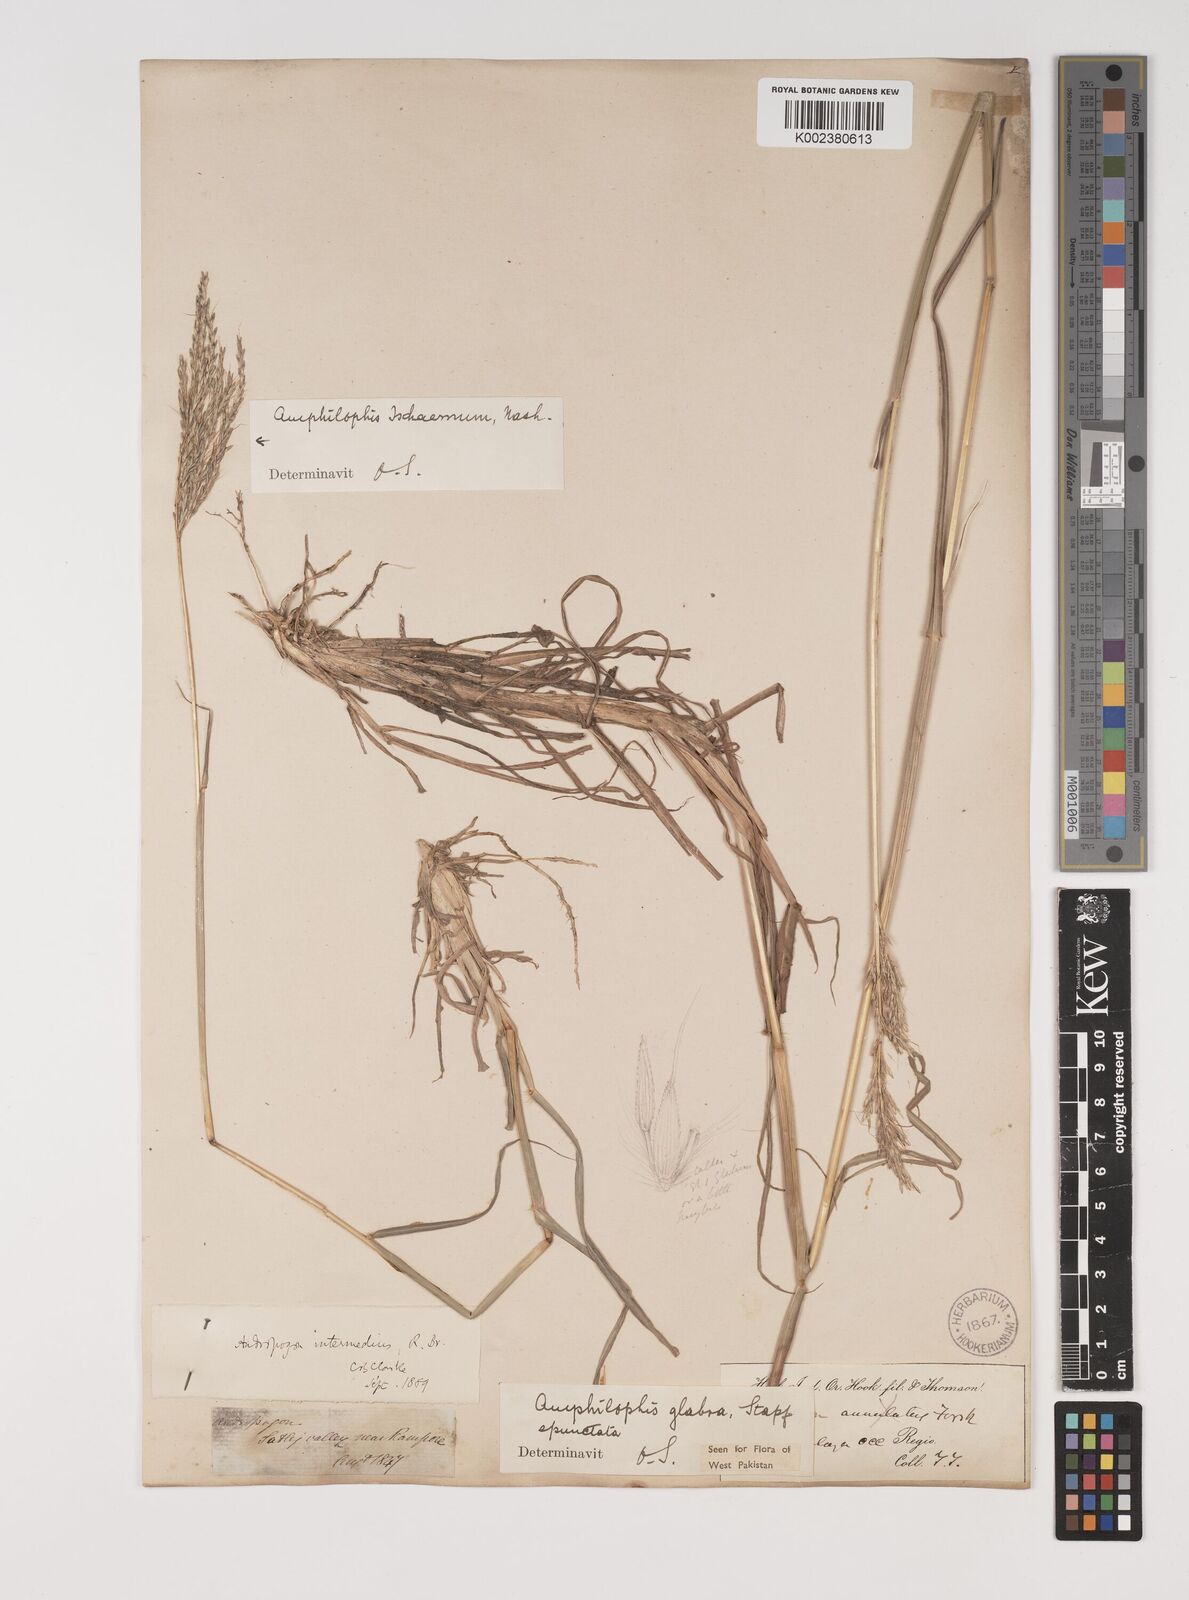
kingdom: Plantae
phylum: Tracheophyta
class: Liliopsida
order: Poales
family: Poaceae
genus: Bothriochloa
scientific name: Bothriochloa bladhii
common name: Caucasian bluestem
